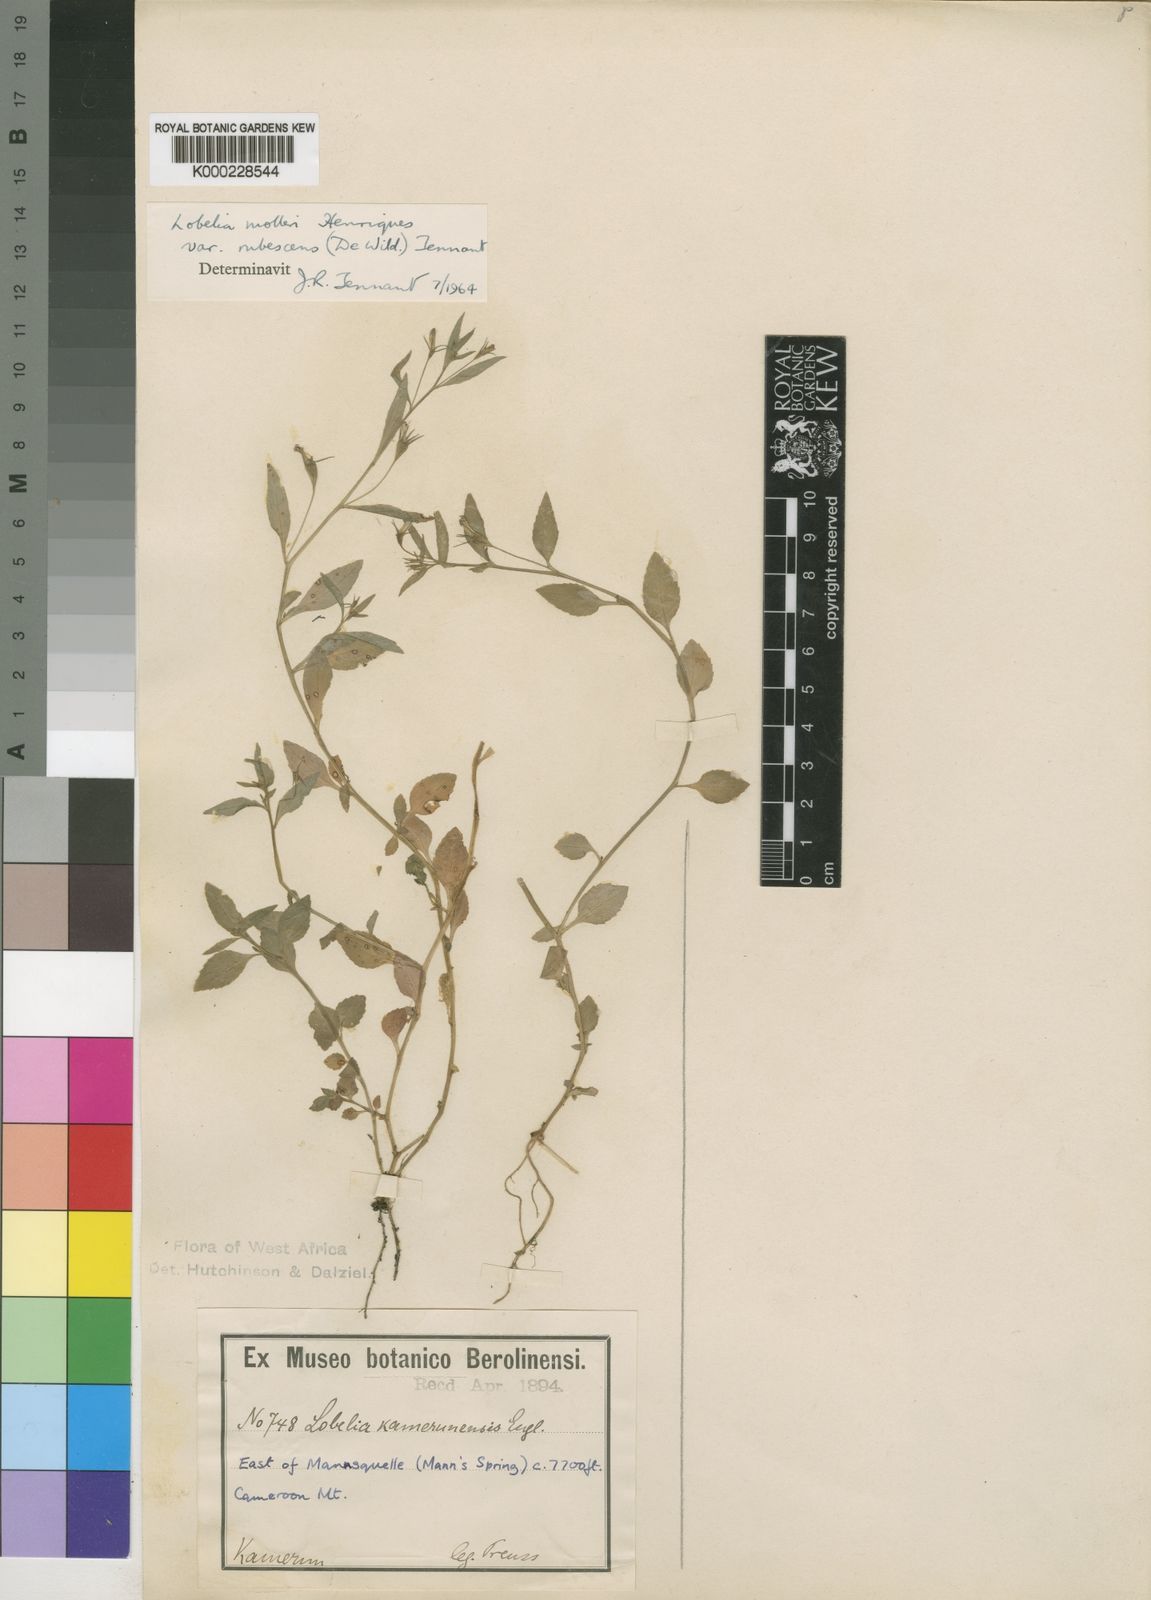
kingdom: Plantae
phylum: Tracheophyta
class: Magnoliopsida
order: Asterales
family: Campanulaceae
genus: Lobelia
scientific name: Lobelia
